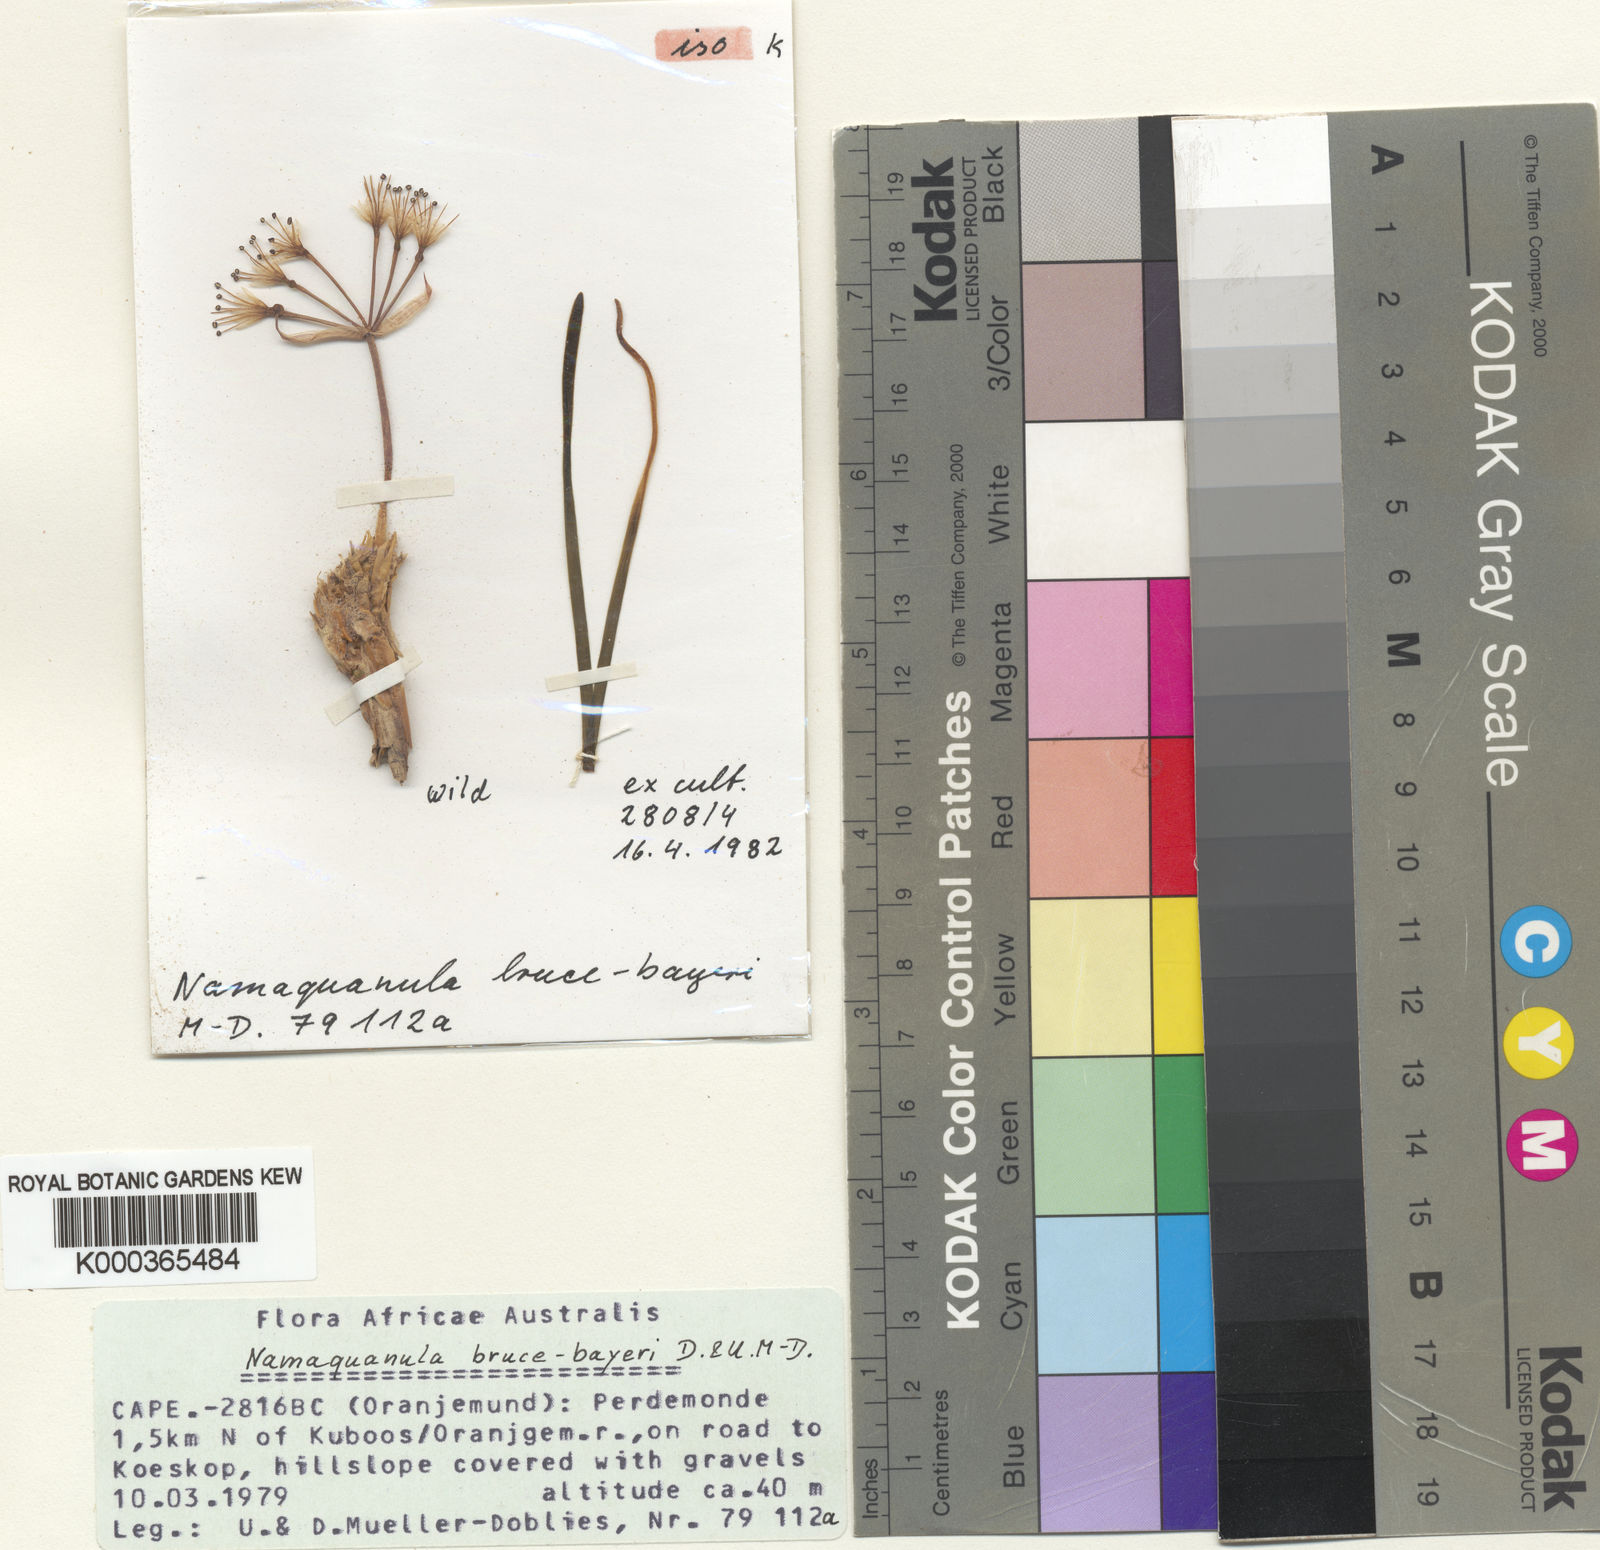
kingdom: Plantae
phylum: Tracheophyta
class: Liliopsida
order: Asparagales
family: Amaryllidaceae
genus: Hessea
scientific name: Hessea
